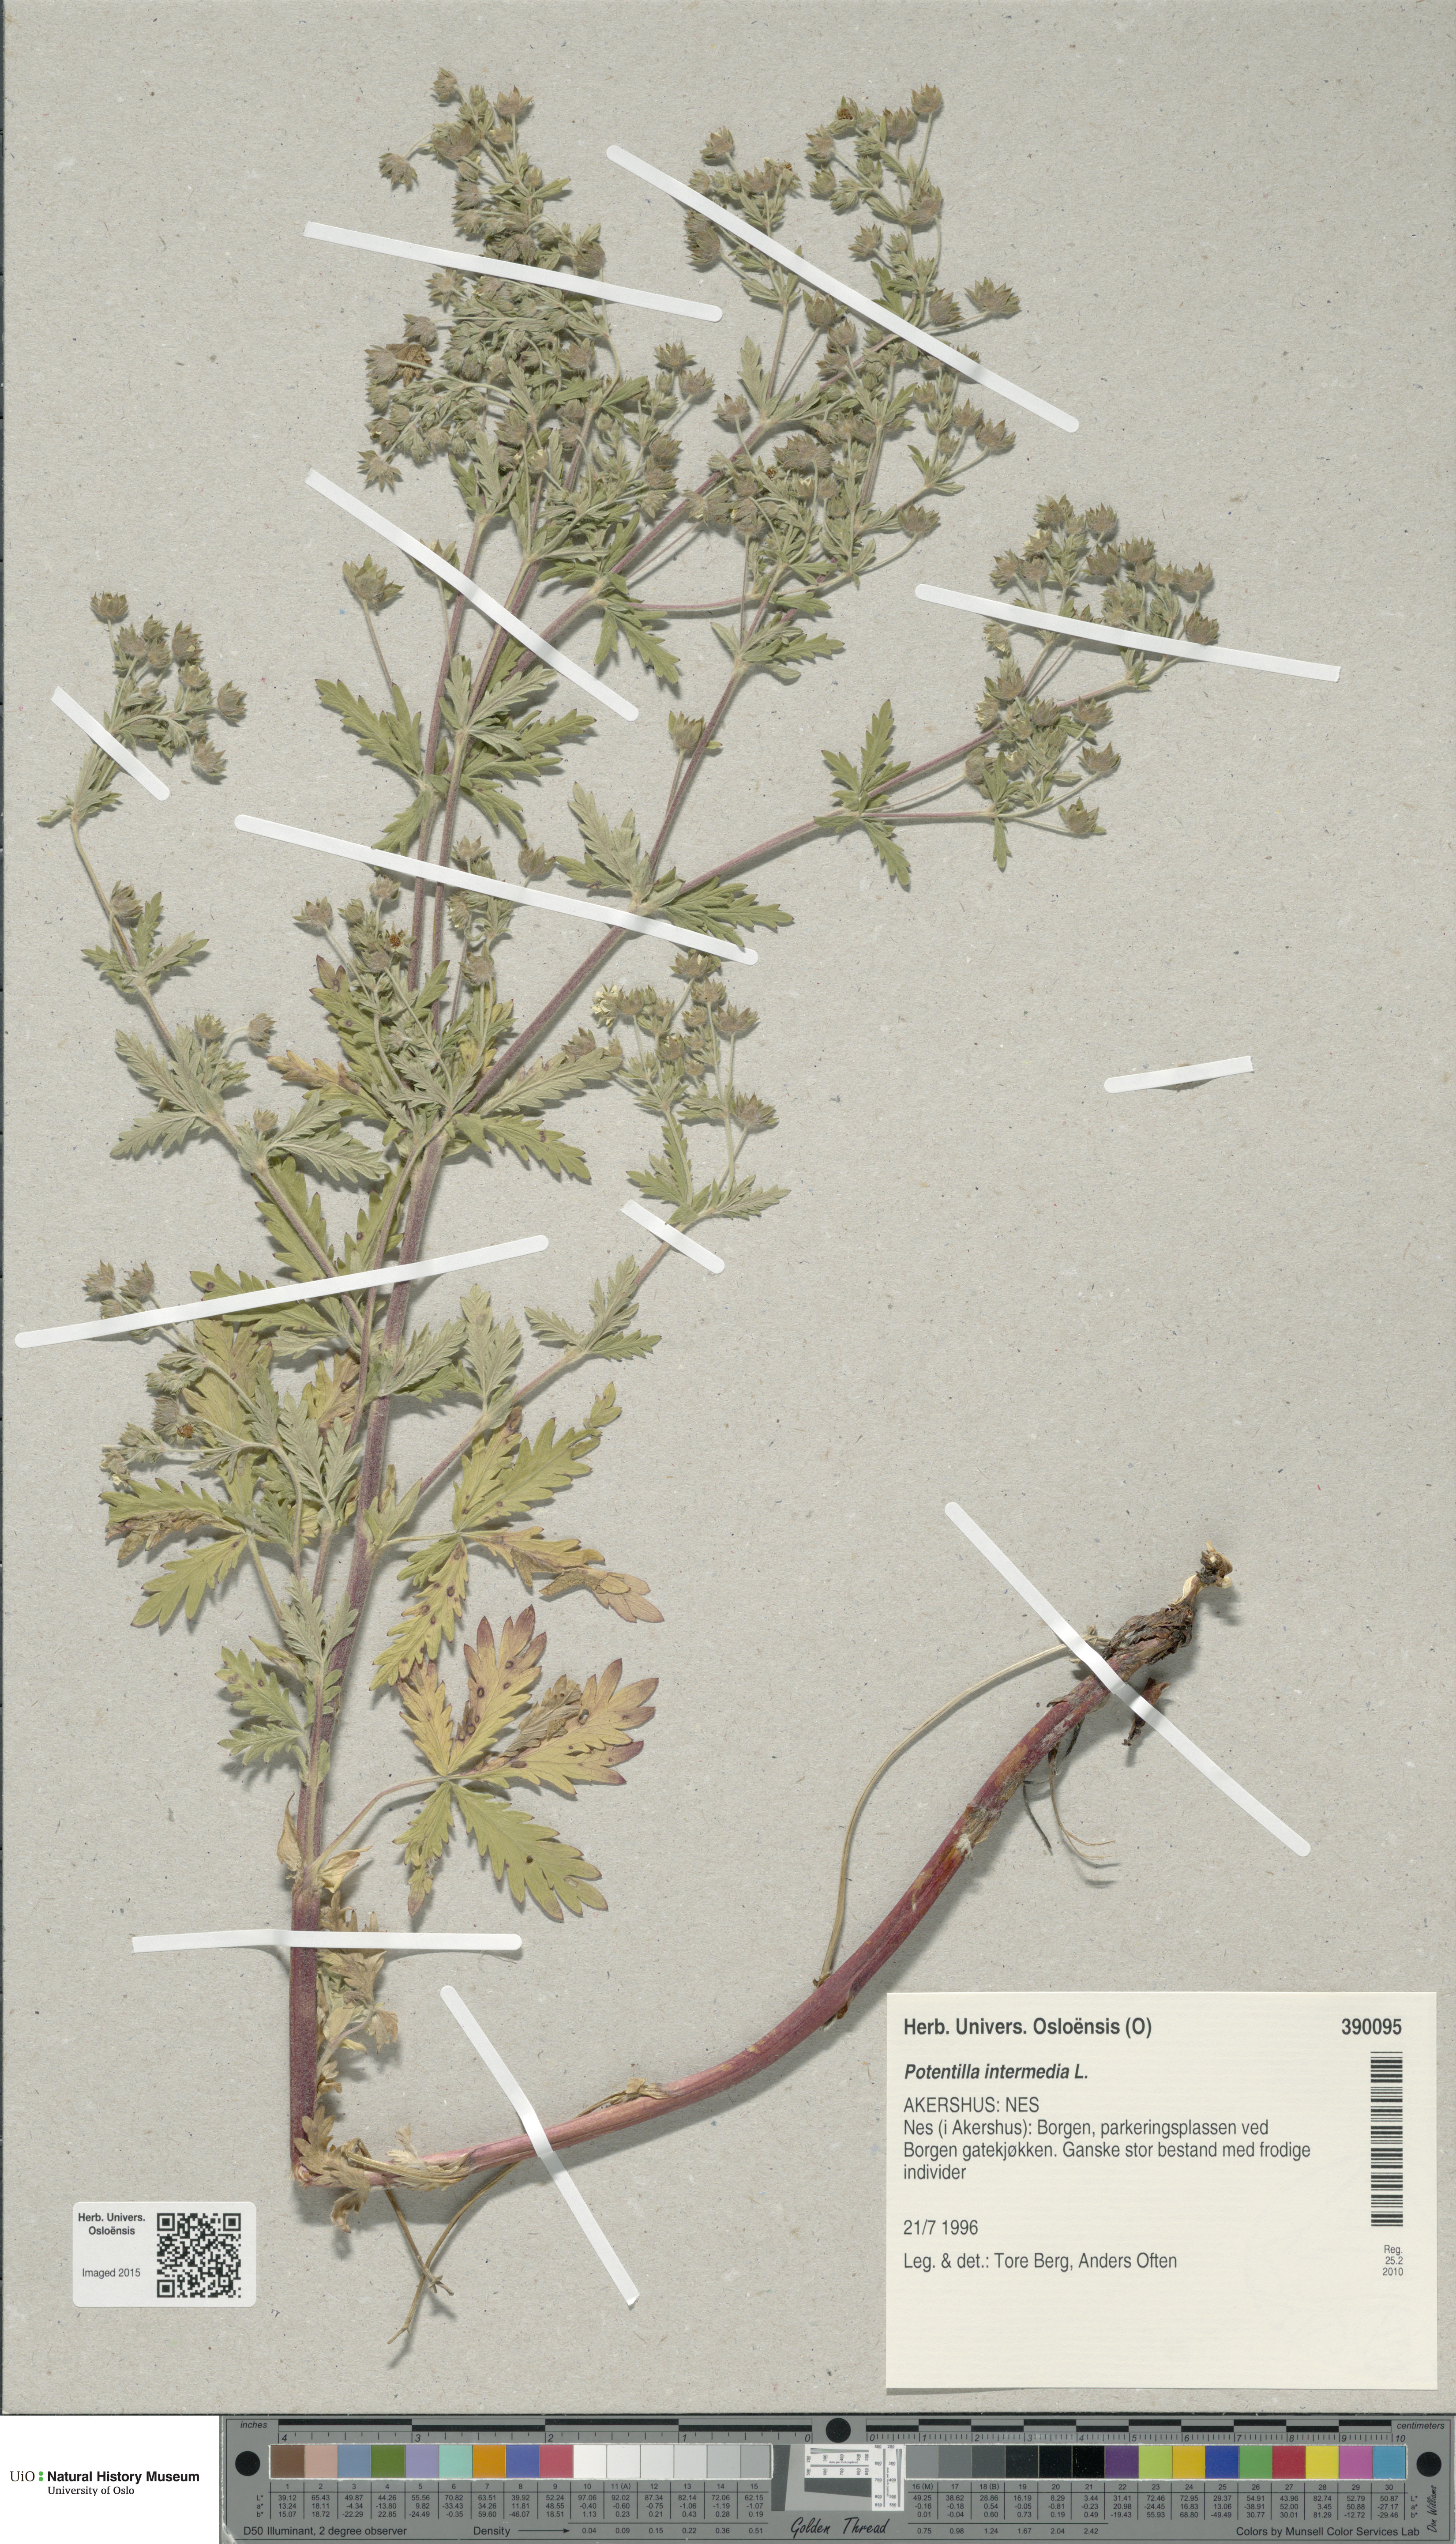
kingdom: Plantae
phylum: Tracheophyta
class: Magnoliopsida
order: Rosales
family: Rosaceae
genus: Potentilla
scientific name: Potentilla intermedia
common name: Downy cinquefoil
